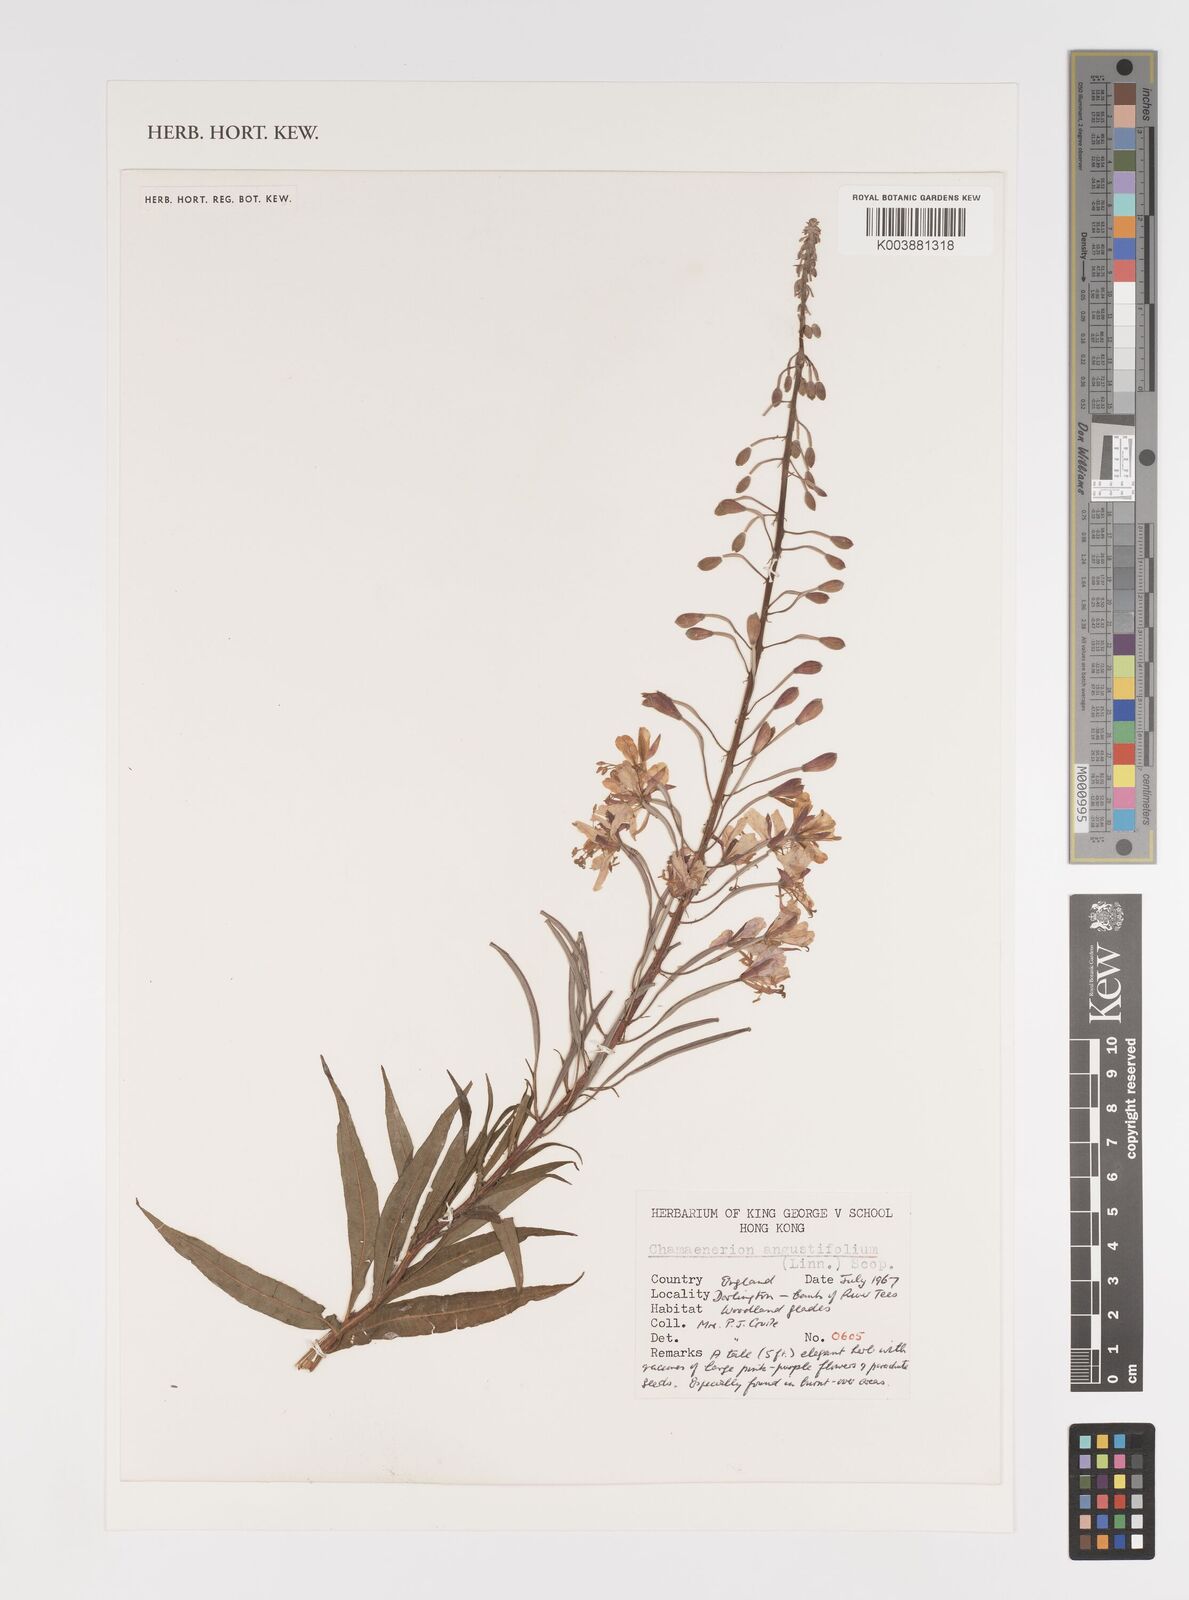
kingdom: Plantae
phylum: Tracheophyta
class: Magnoliopsida
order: Myrtales
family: Onagraceae
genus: Chamaenerion
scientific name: Chamaenerion angustifolium
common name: Fireweed
